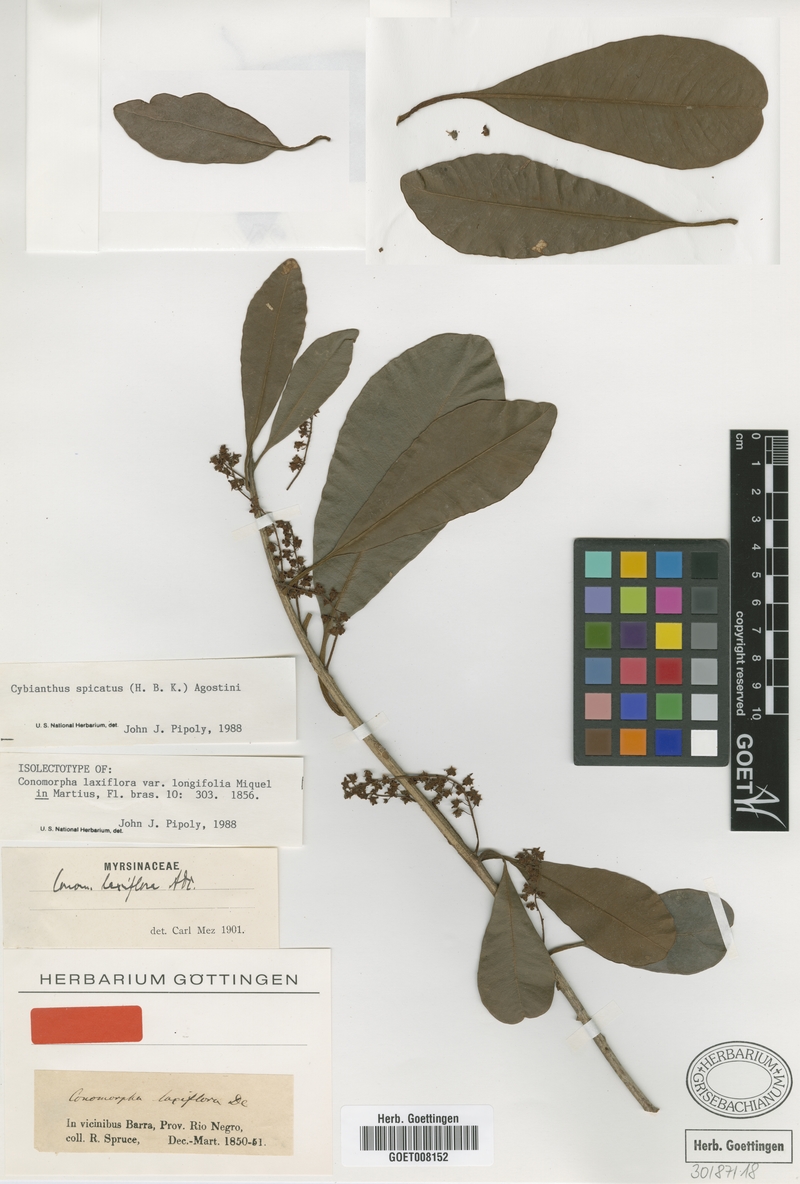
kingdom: Plantae
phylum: Tracheophyta
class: Magnoliopsida
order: Ericales
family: Primulaceae
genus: Cybianthus
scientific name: Cybianthus spicatus
